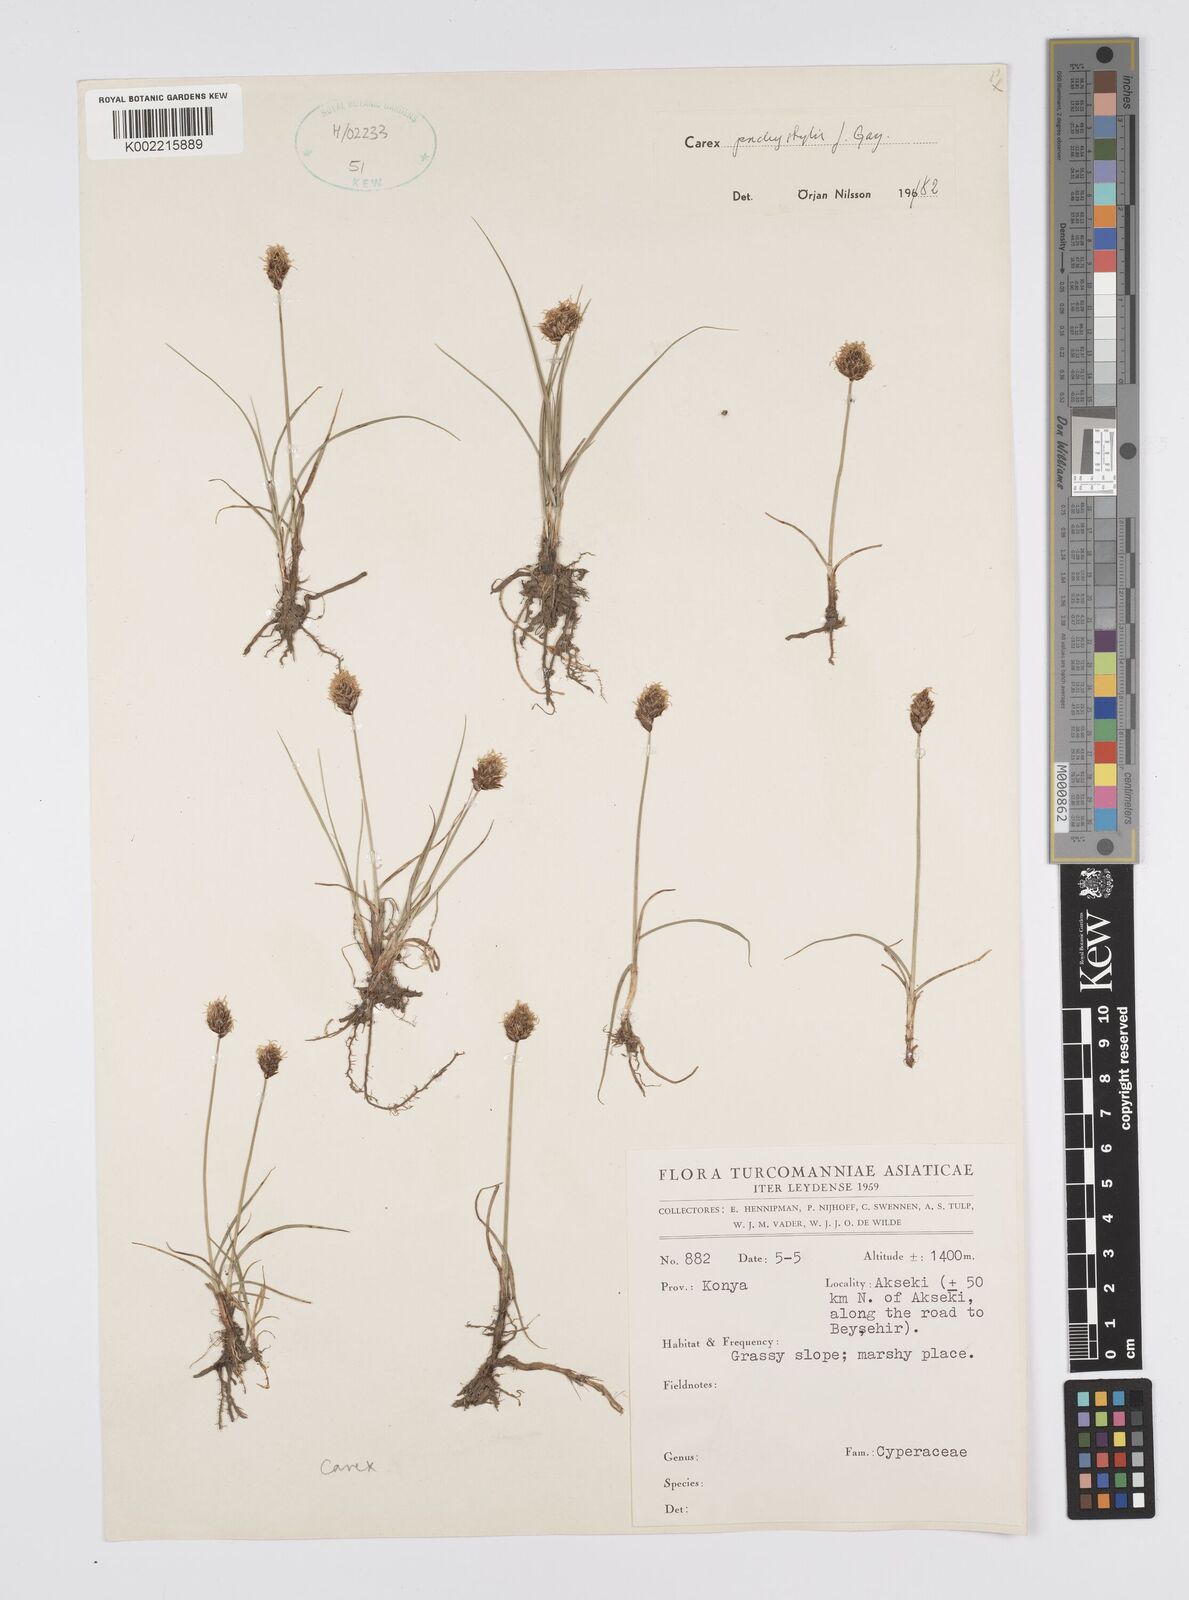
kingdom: Plantae
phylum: Tracheophyta
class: Liliopsida
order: Poales
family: Cyperaceae
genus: Carex
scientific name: Carex stenophylla
